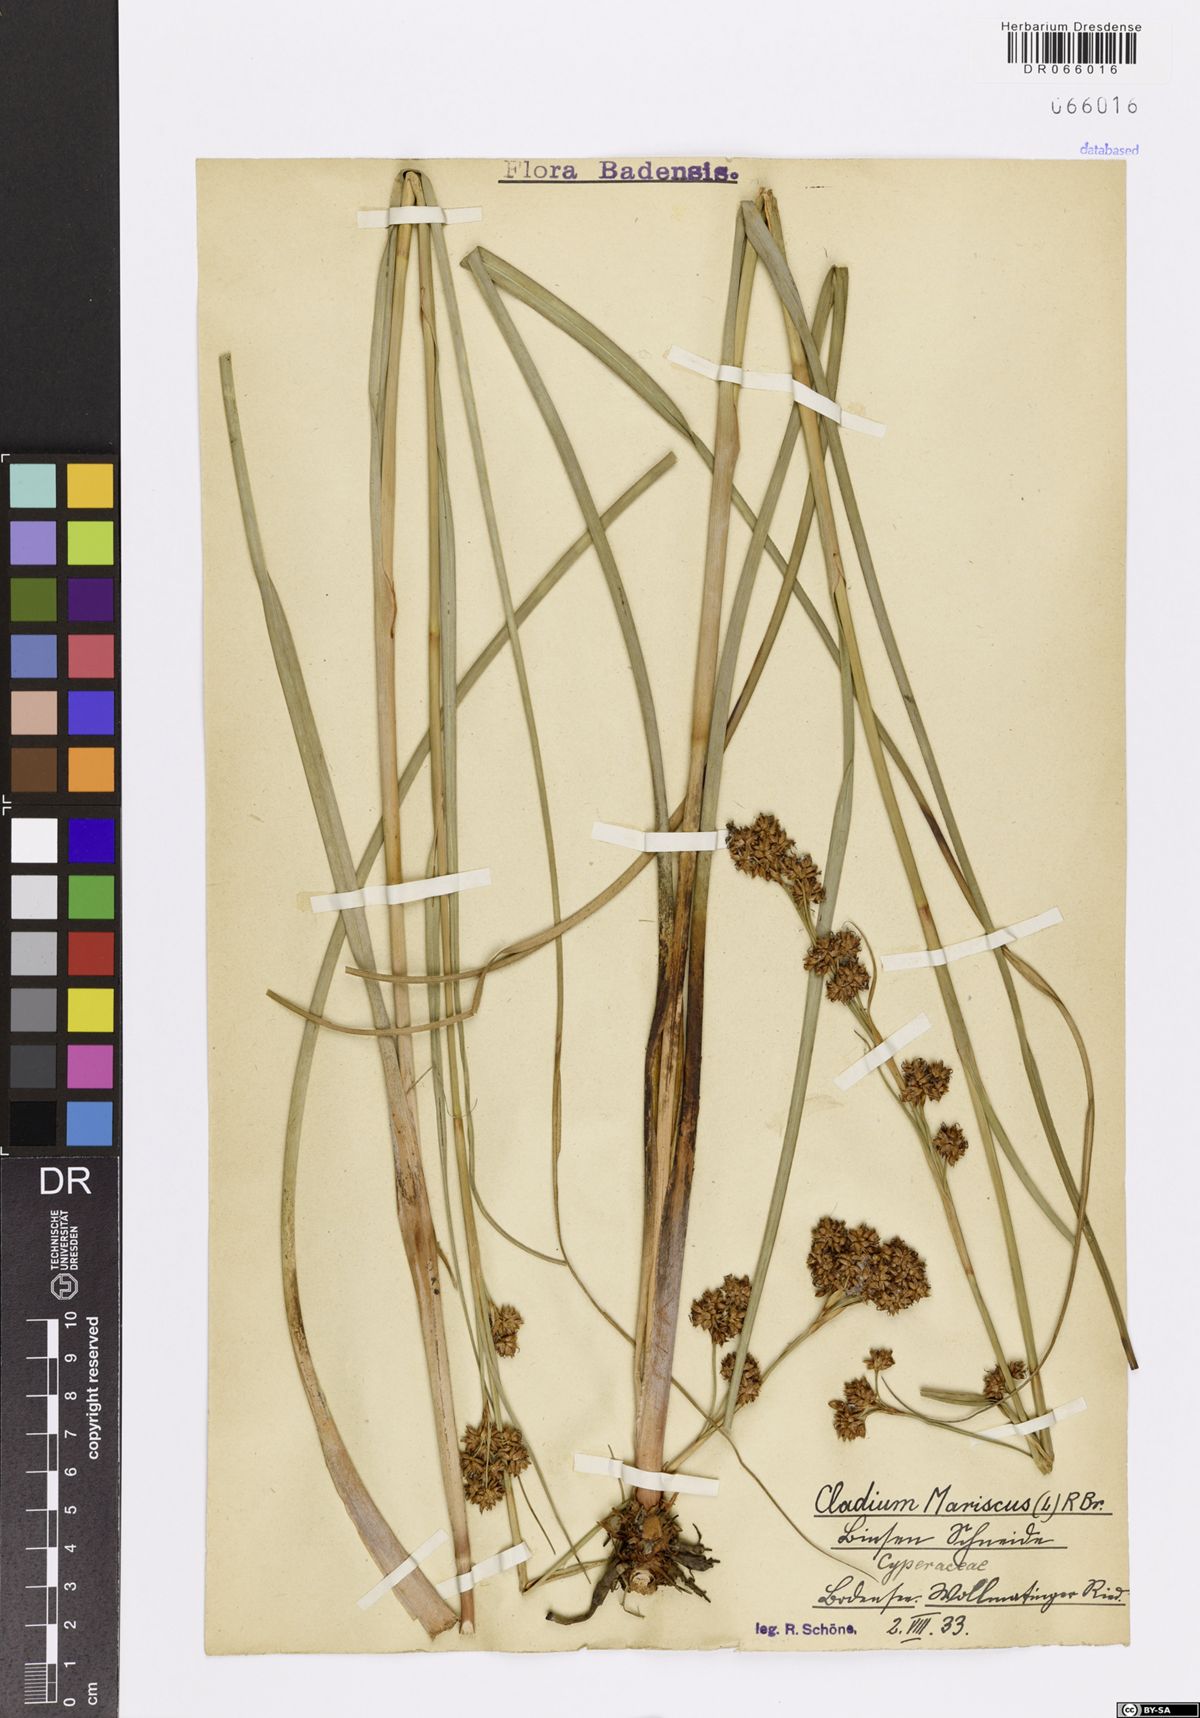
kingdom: Plantae
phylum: Tracheophyta
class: Liliopsida
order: Poales
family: Cyperaceae
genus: Cladium
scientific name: Cladium mariscus
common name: Great fen-sedge
